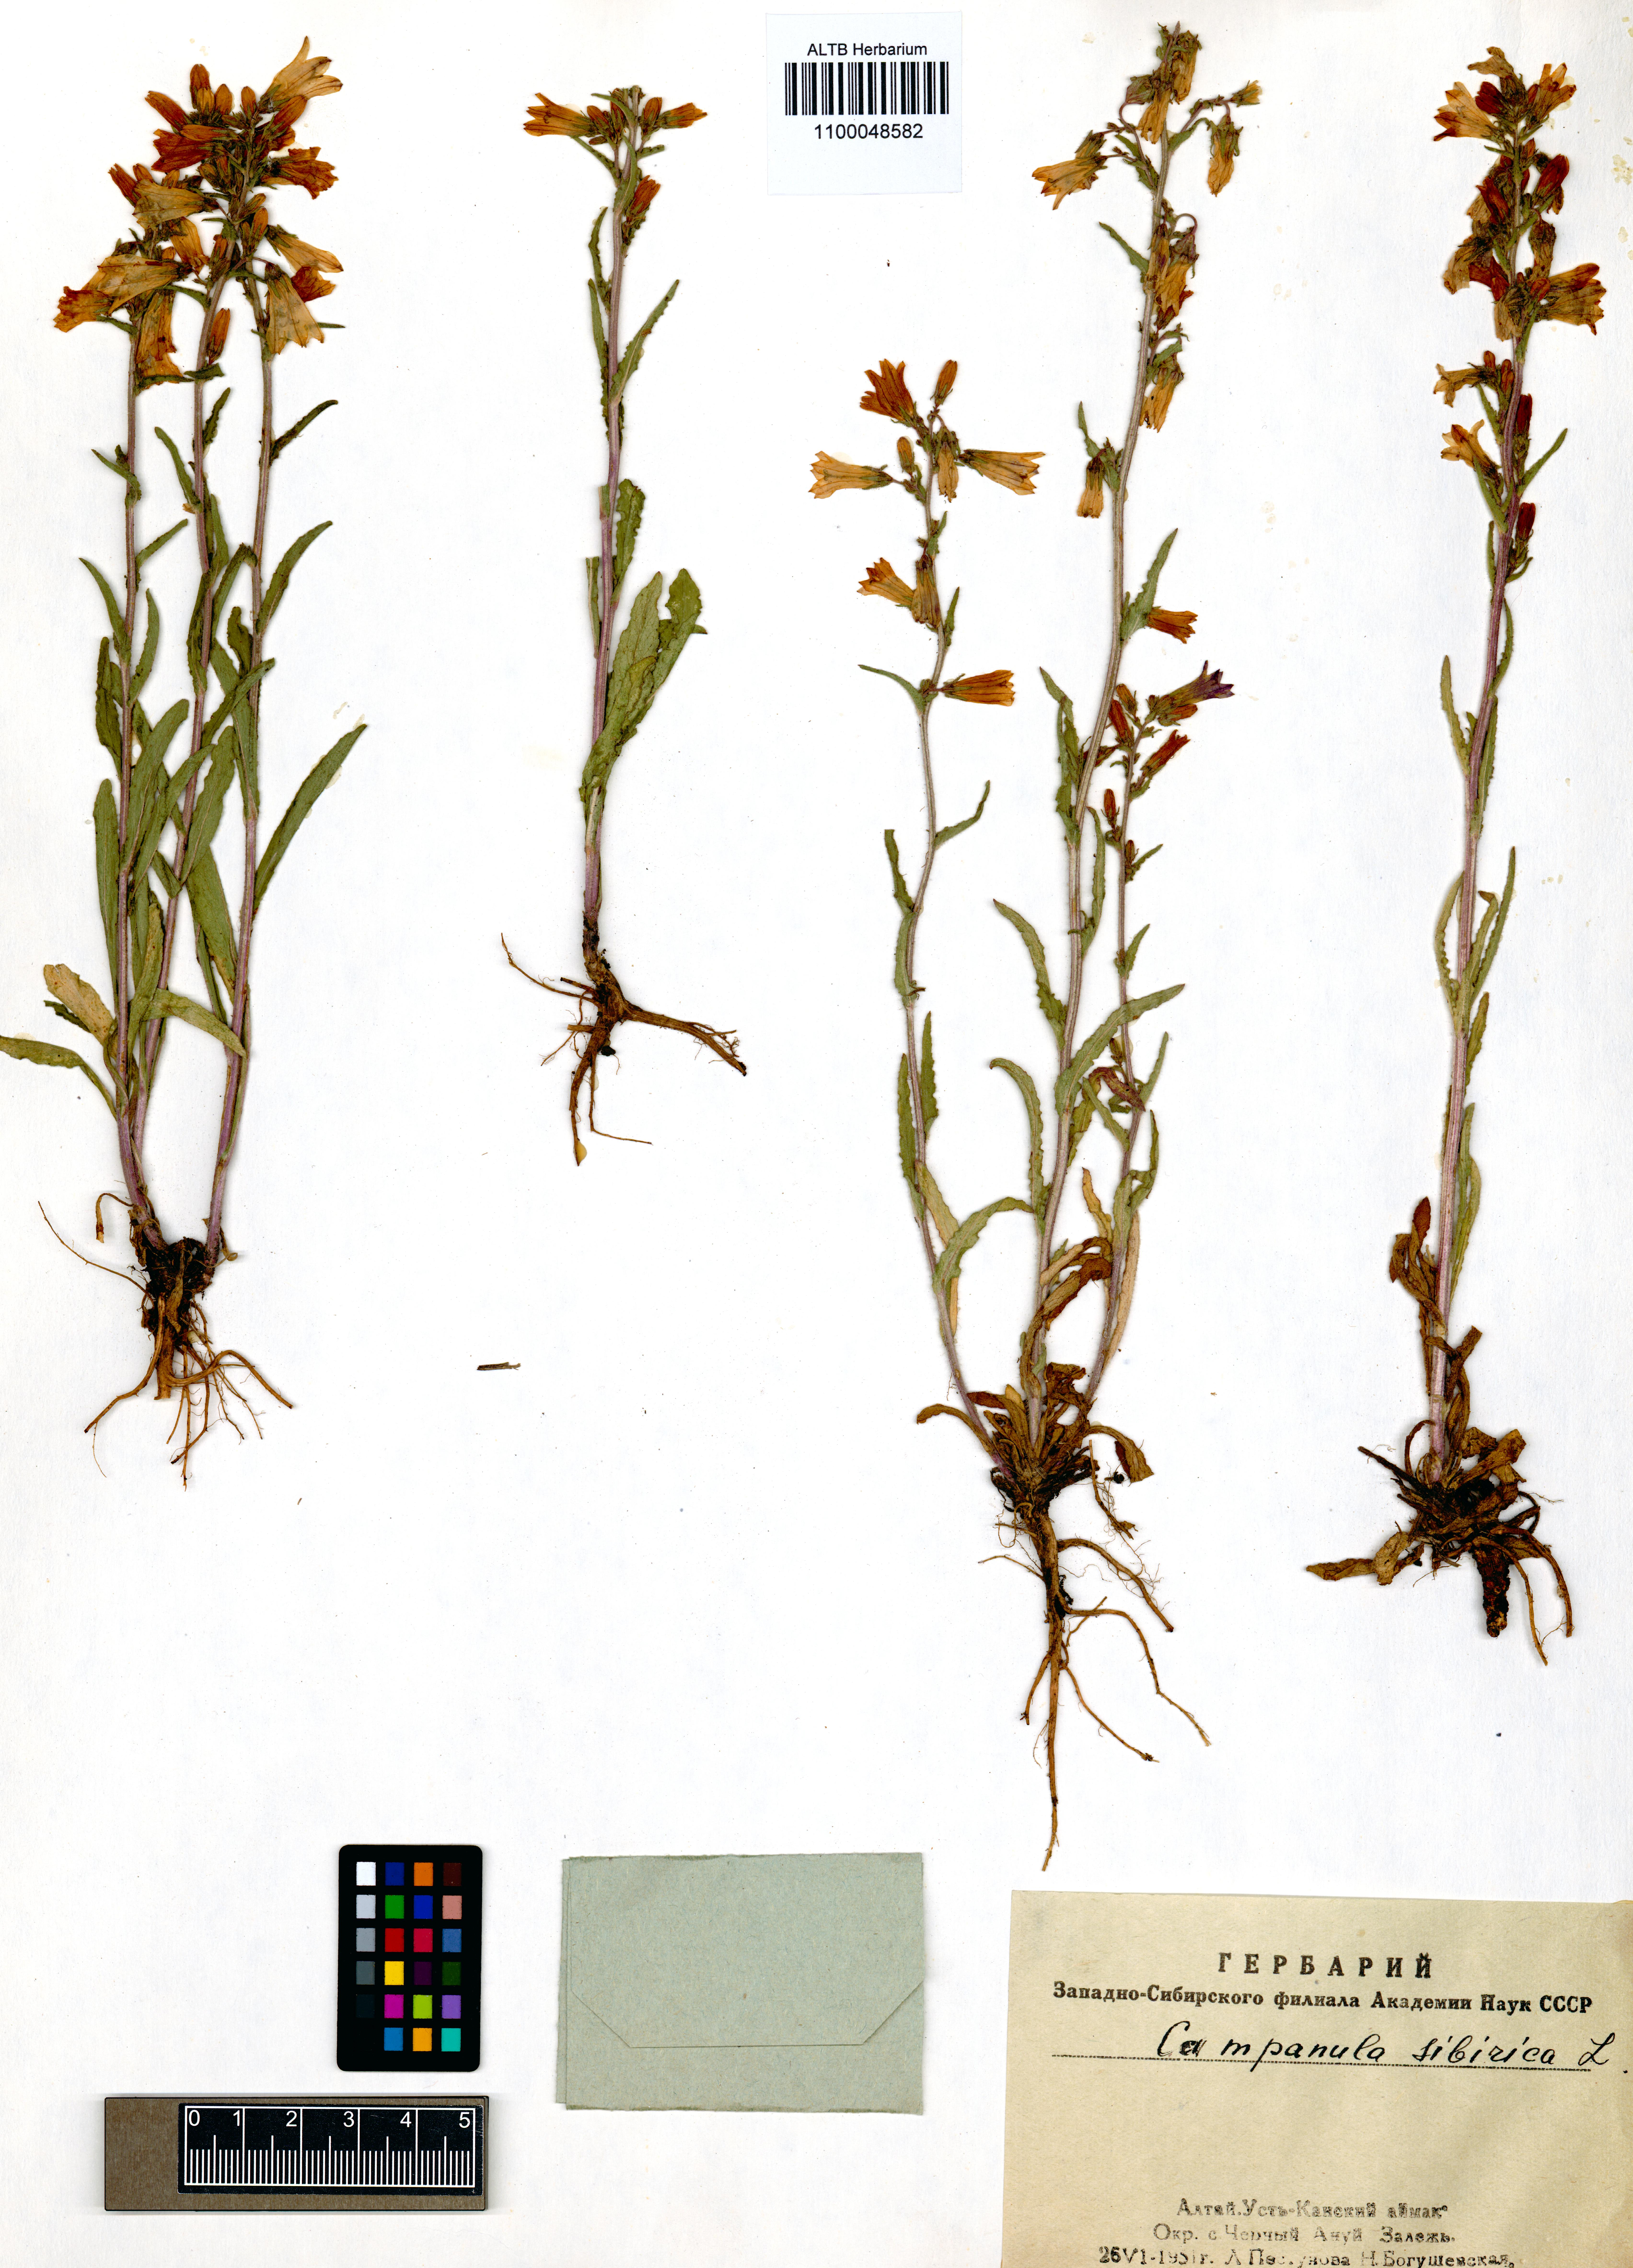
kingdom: Plantae
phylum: Tracheophyta
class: Magnoliopsida
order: Asterales
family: Campanulaceae
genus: Campanula
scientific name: Campanula sibirica
